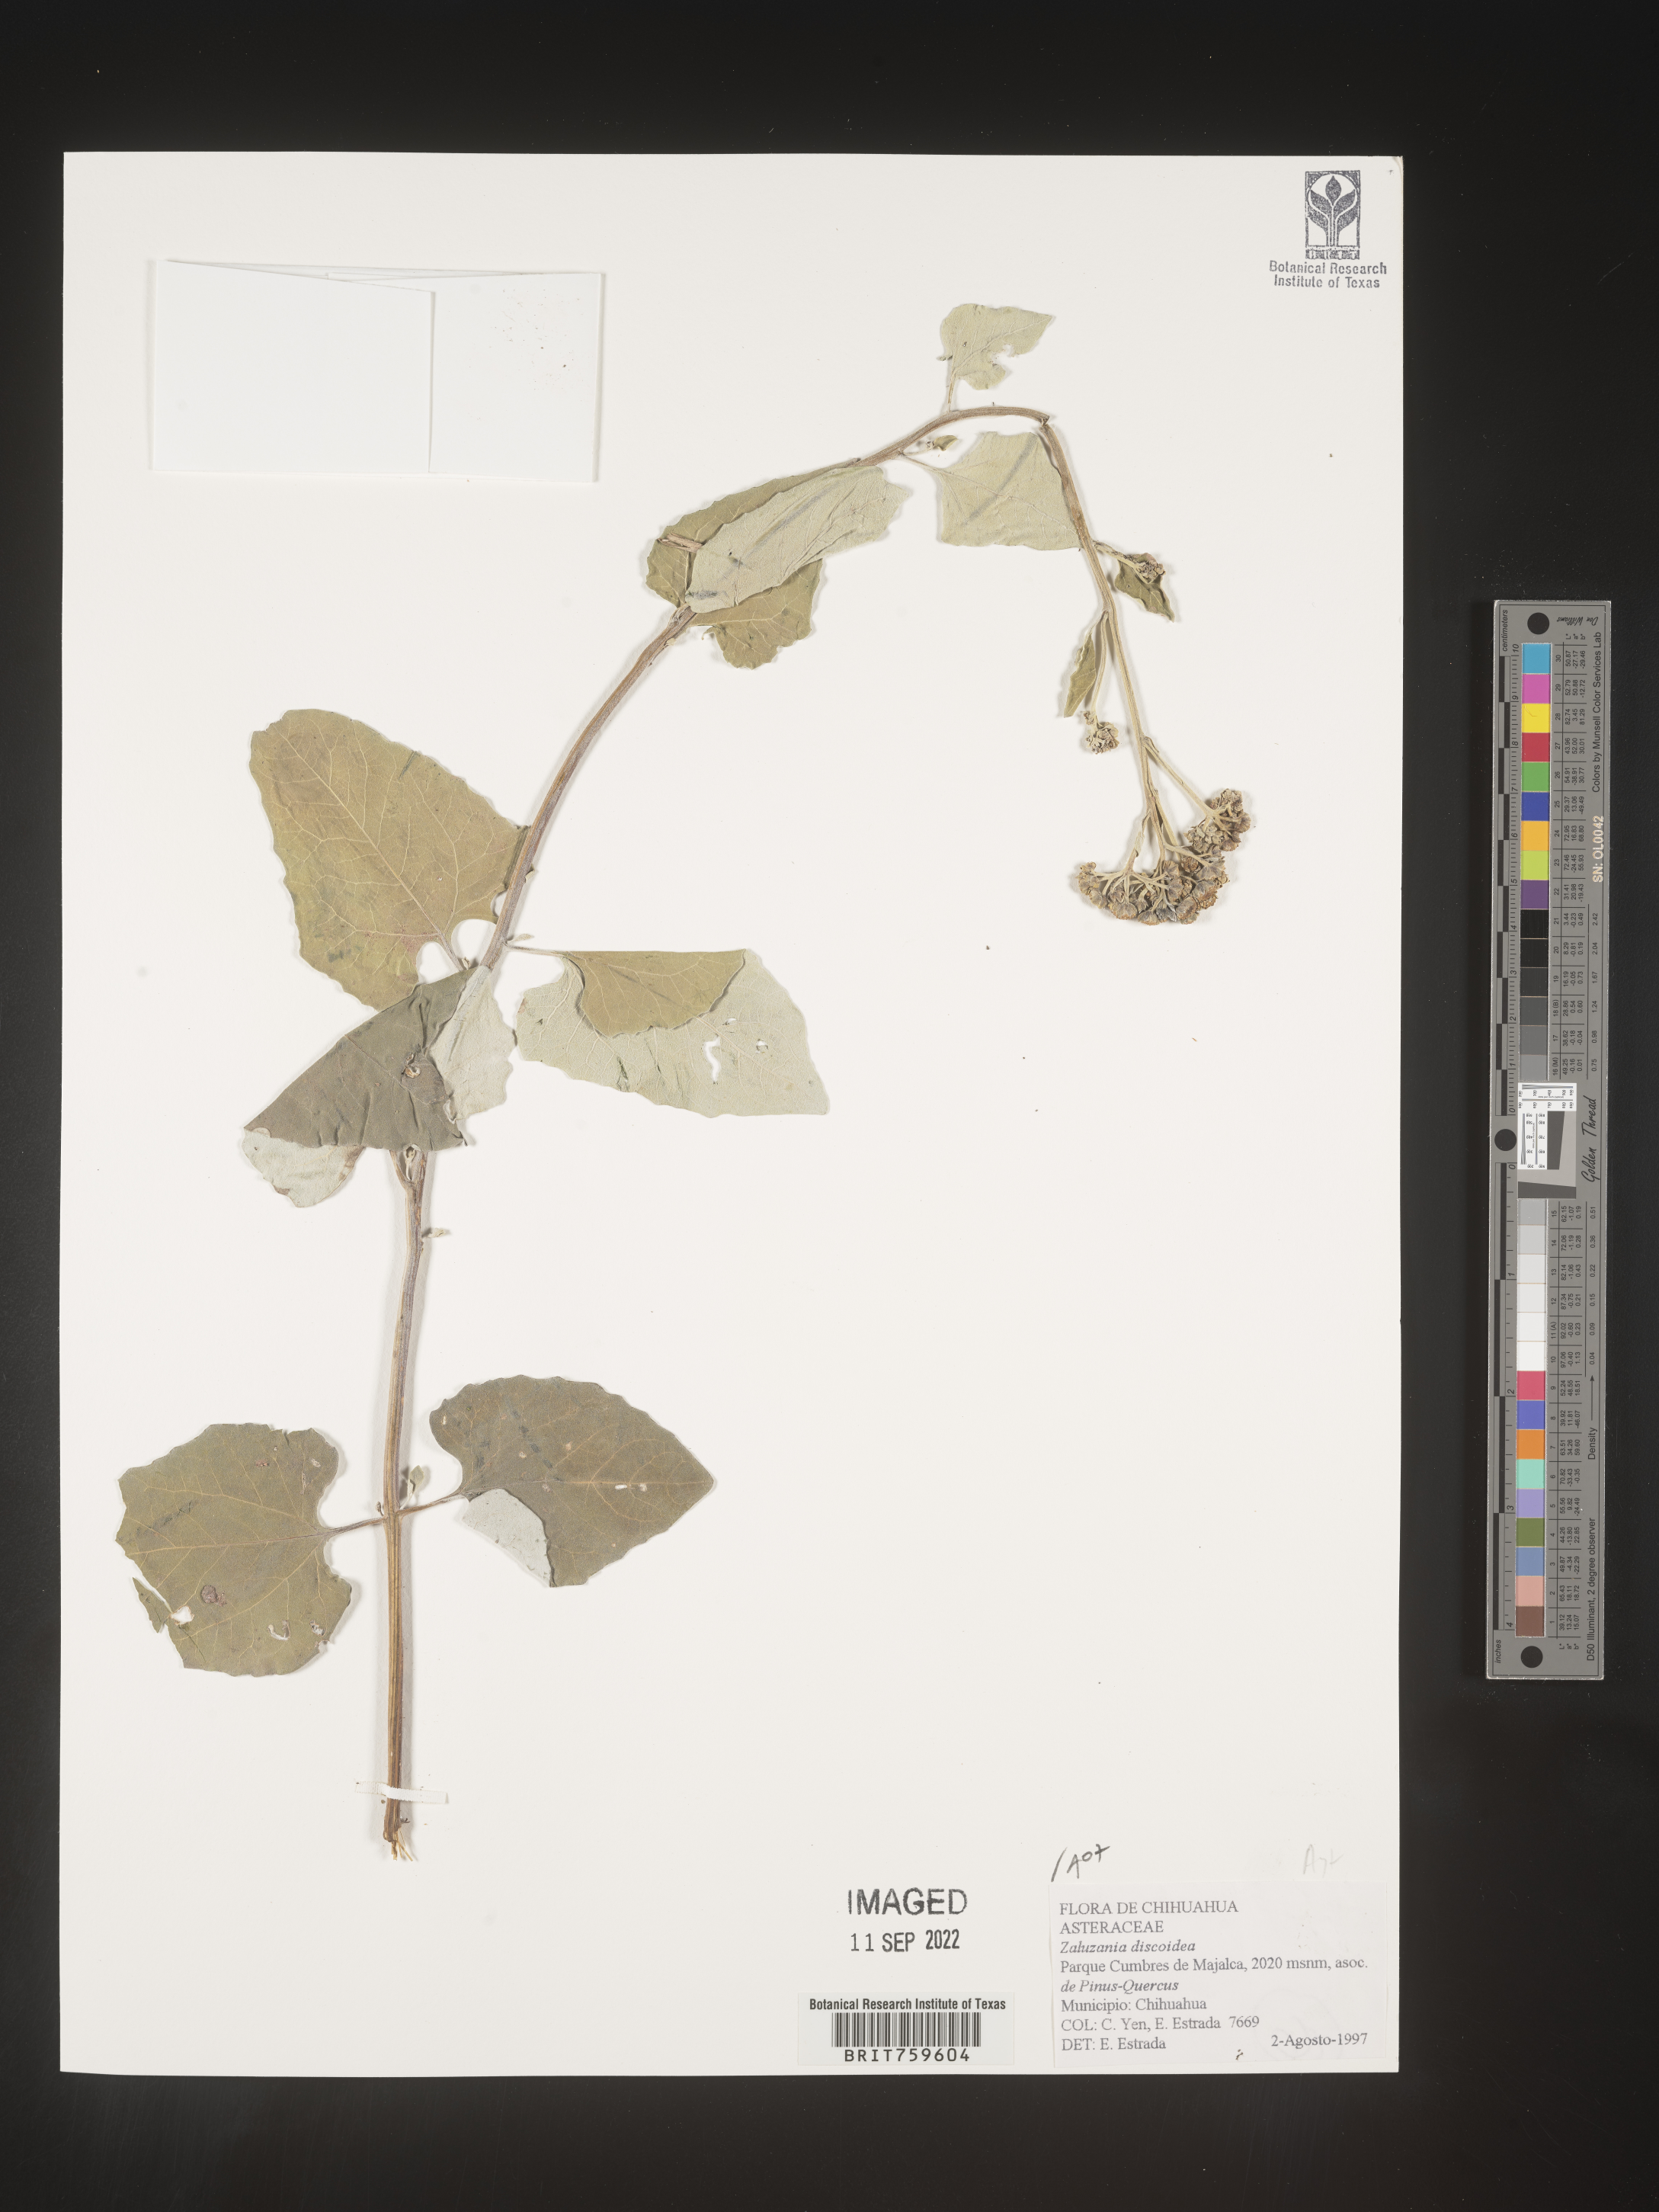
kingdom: Plantae
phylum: Tracheophyta
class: Magnoliopsida
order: Asterales
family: Asteraceae
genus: Zaluzania
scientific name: Zaluzania
